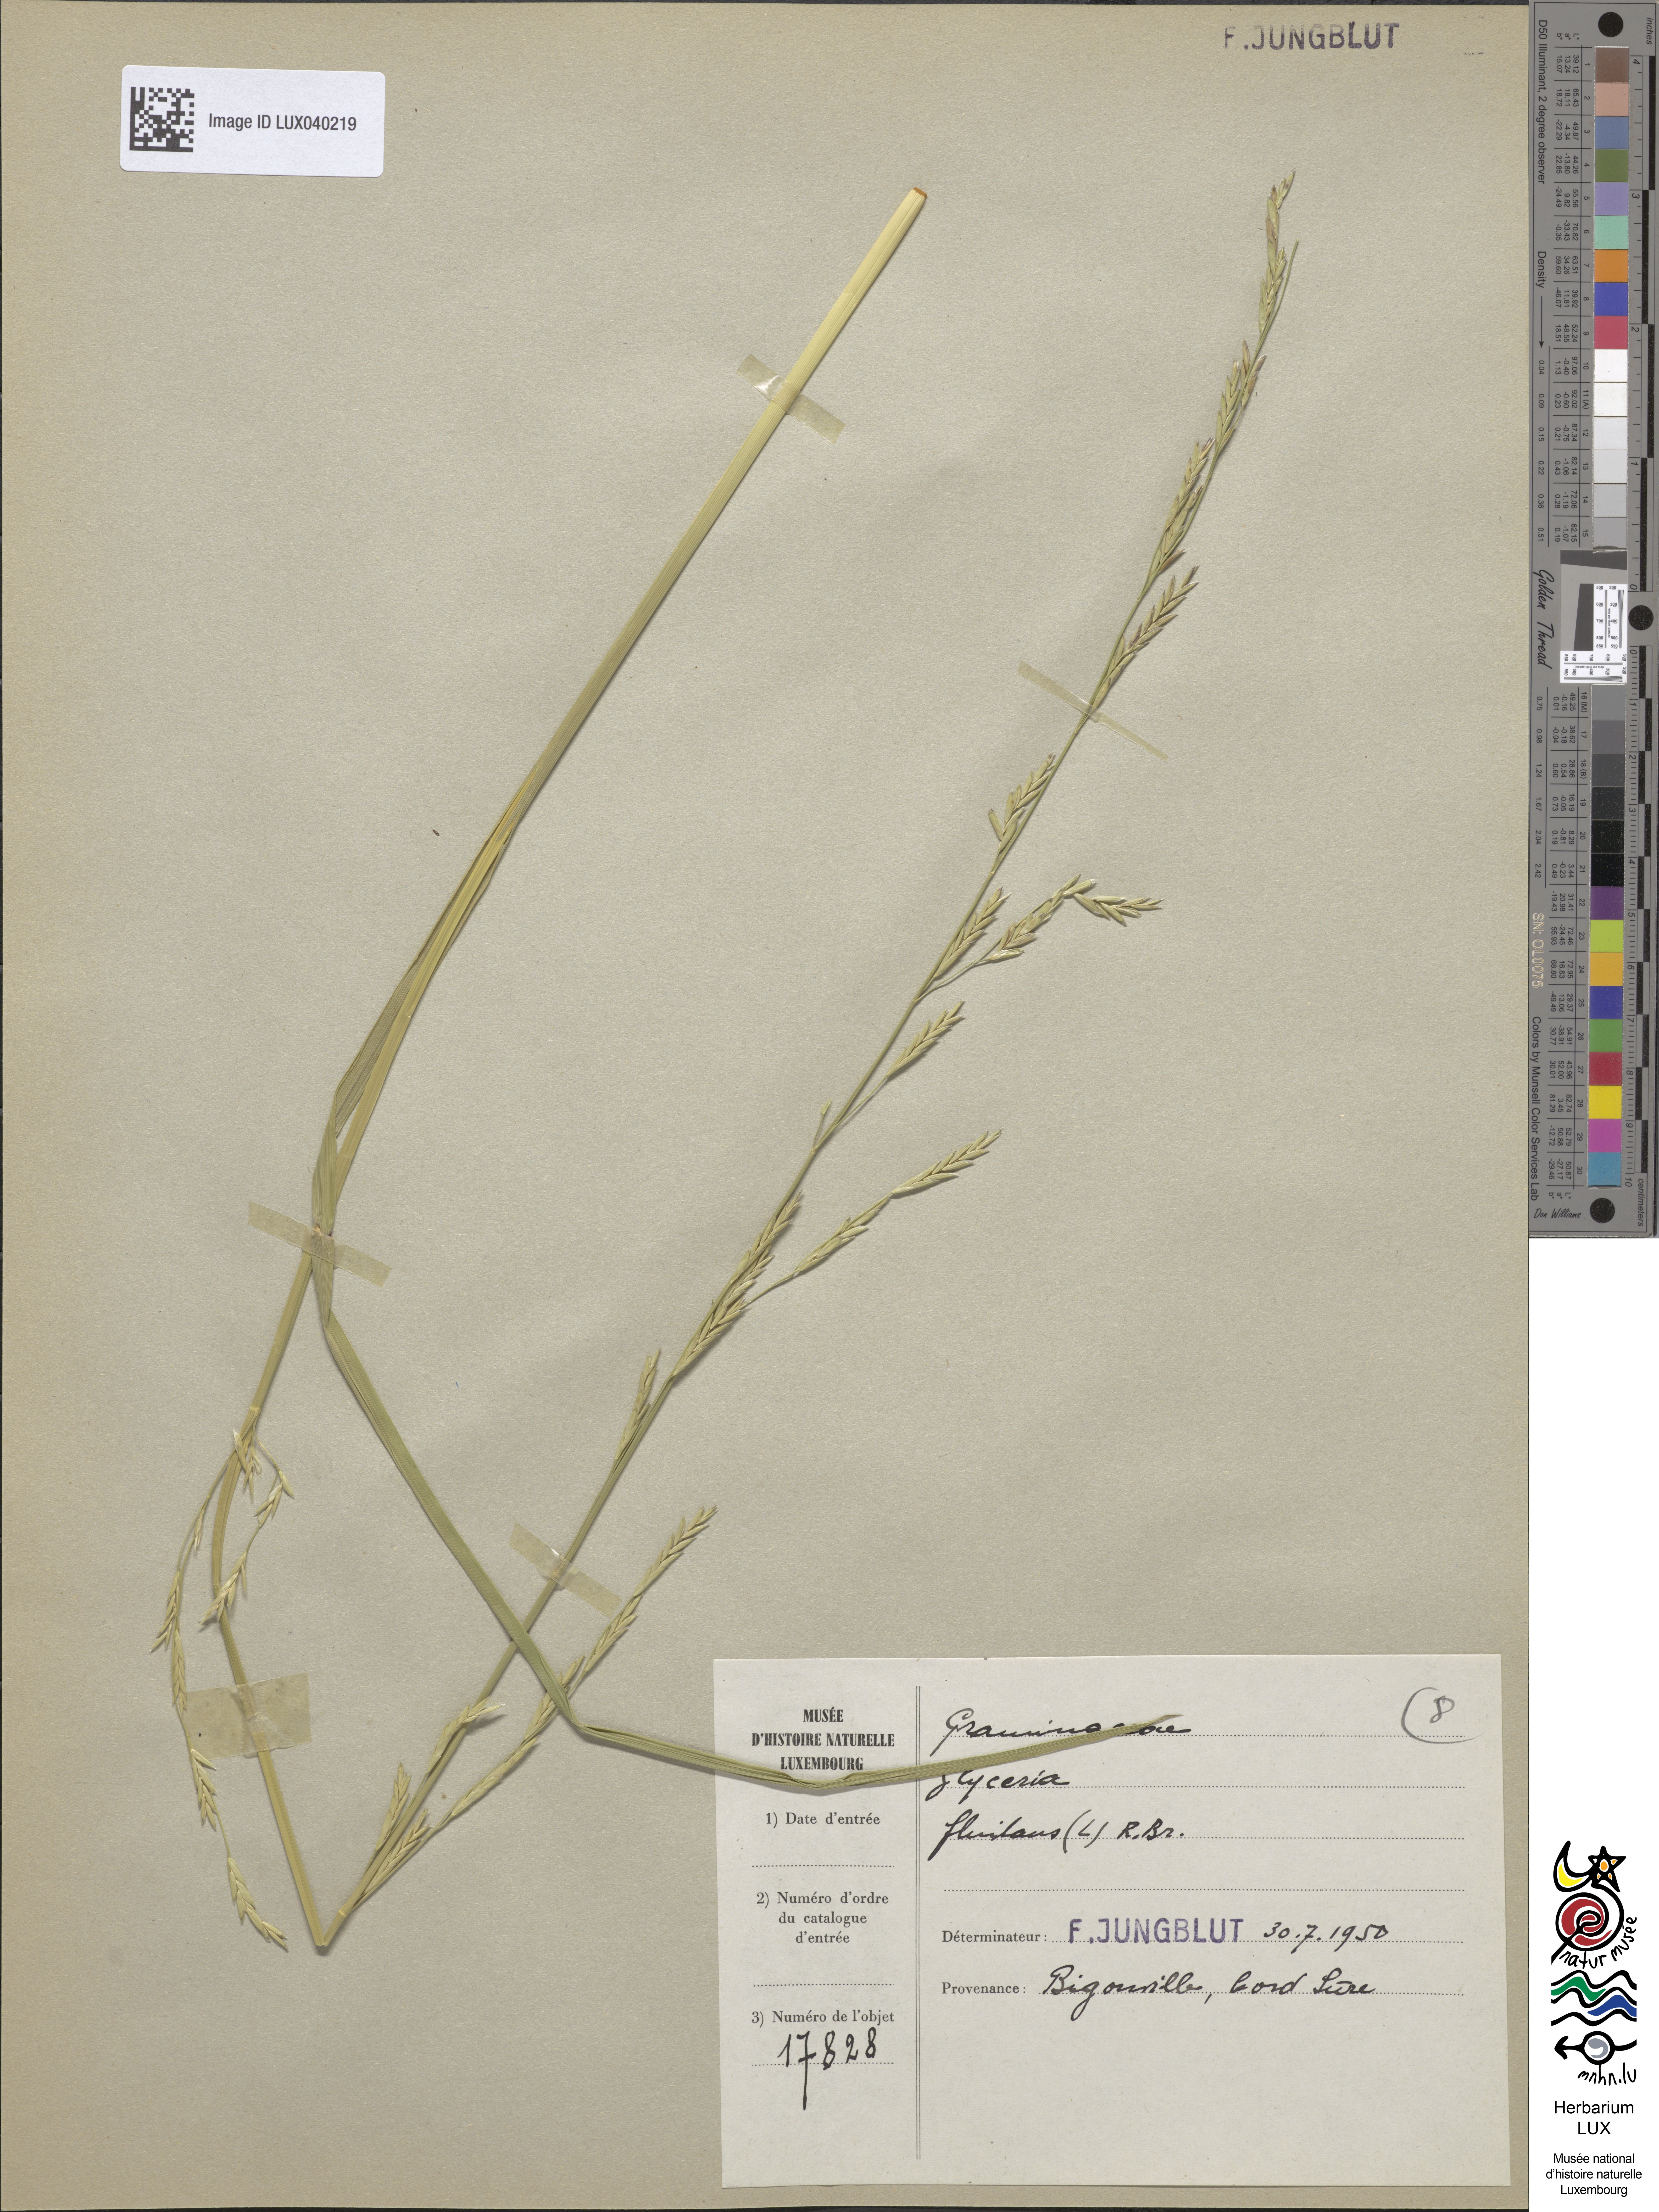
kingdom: Plantae
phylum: Tracheophyta
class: Liliopsida
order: Poales
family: Poaceae
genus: Glyceria
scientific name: Glyceria fluitans
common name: Floating sweet-grass
